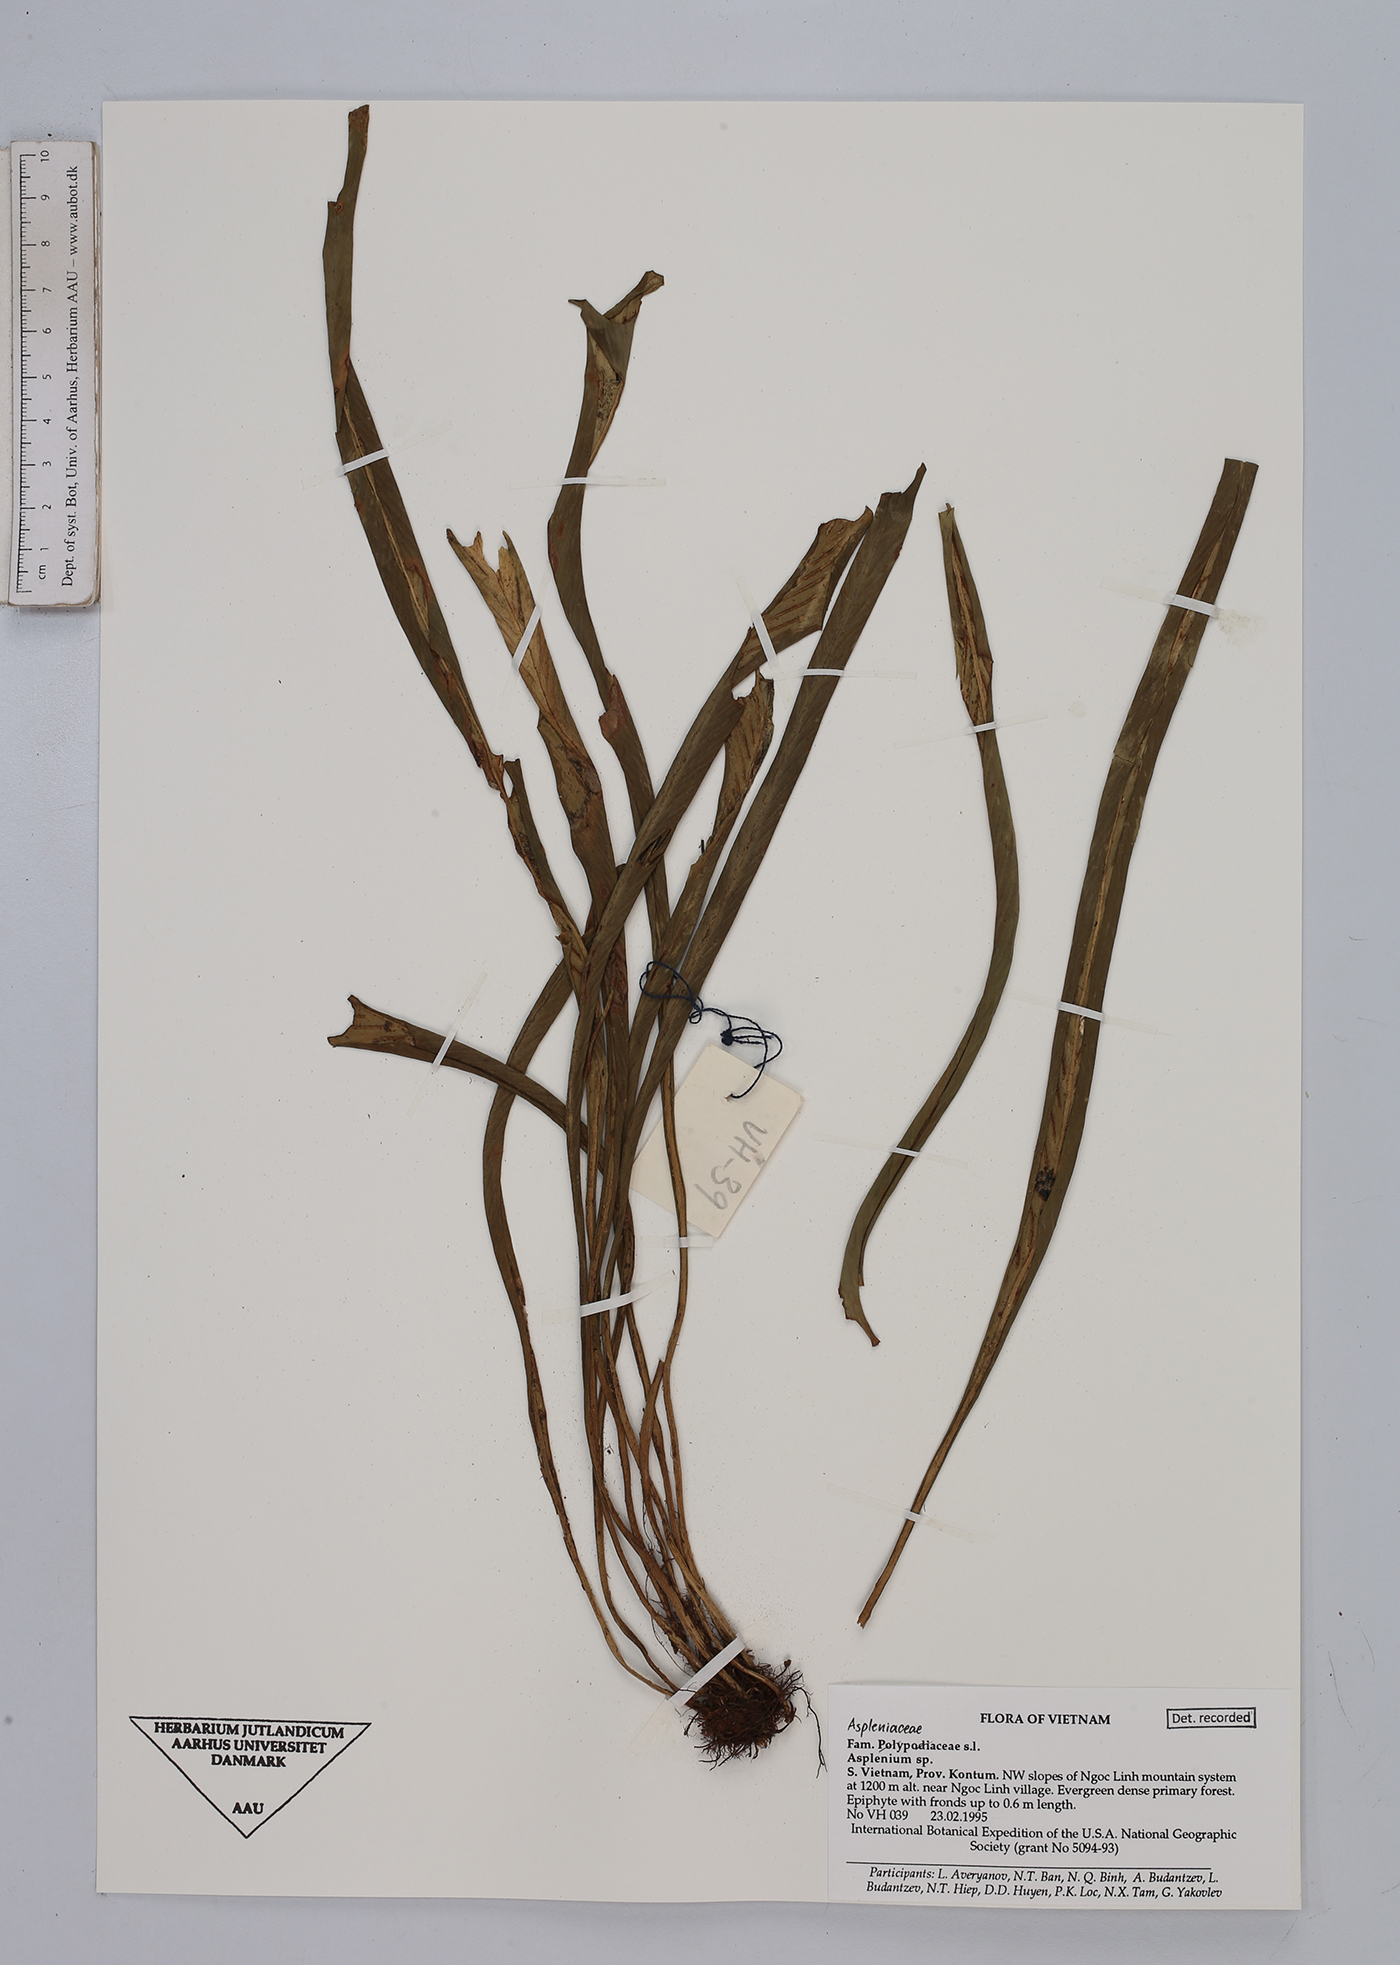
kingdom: Plantae
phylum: Tracheophyta
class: Polypodiopsida
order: Polypodiales
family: Aspleniaceae
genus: Asplenium
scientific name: Asplenium
